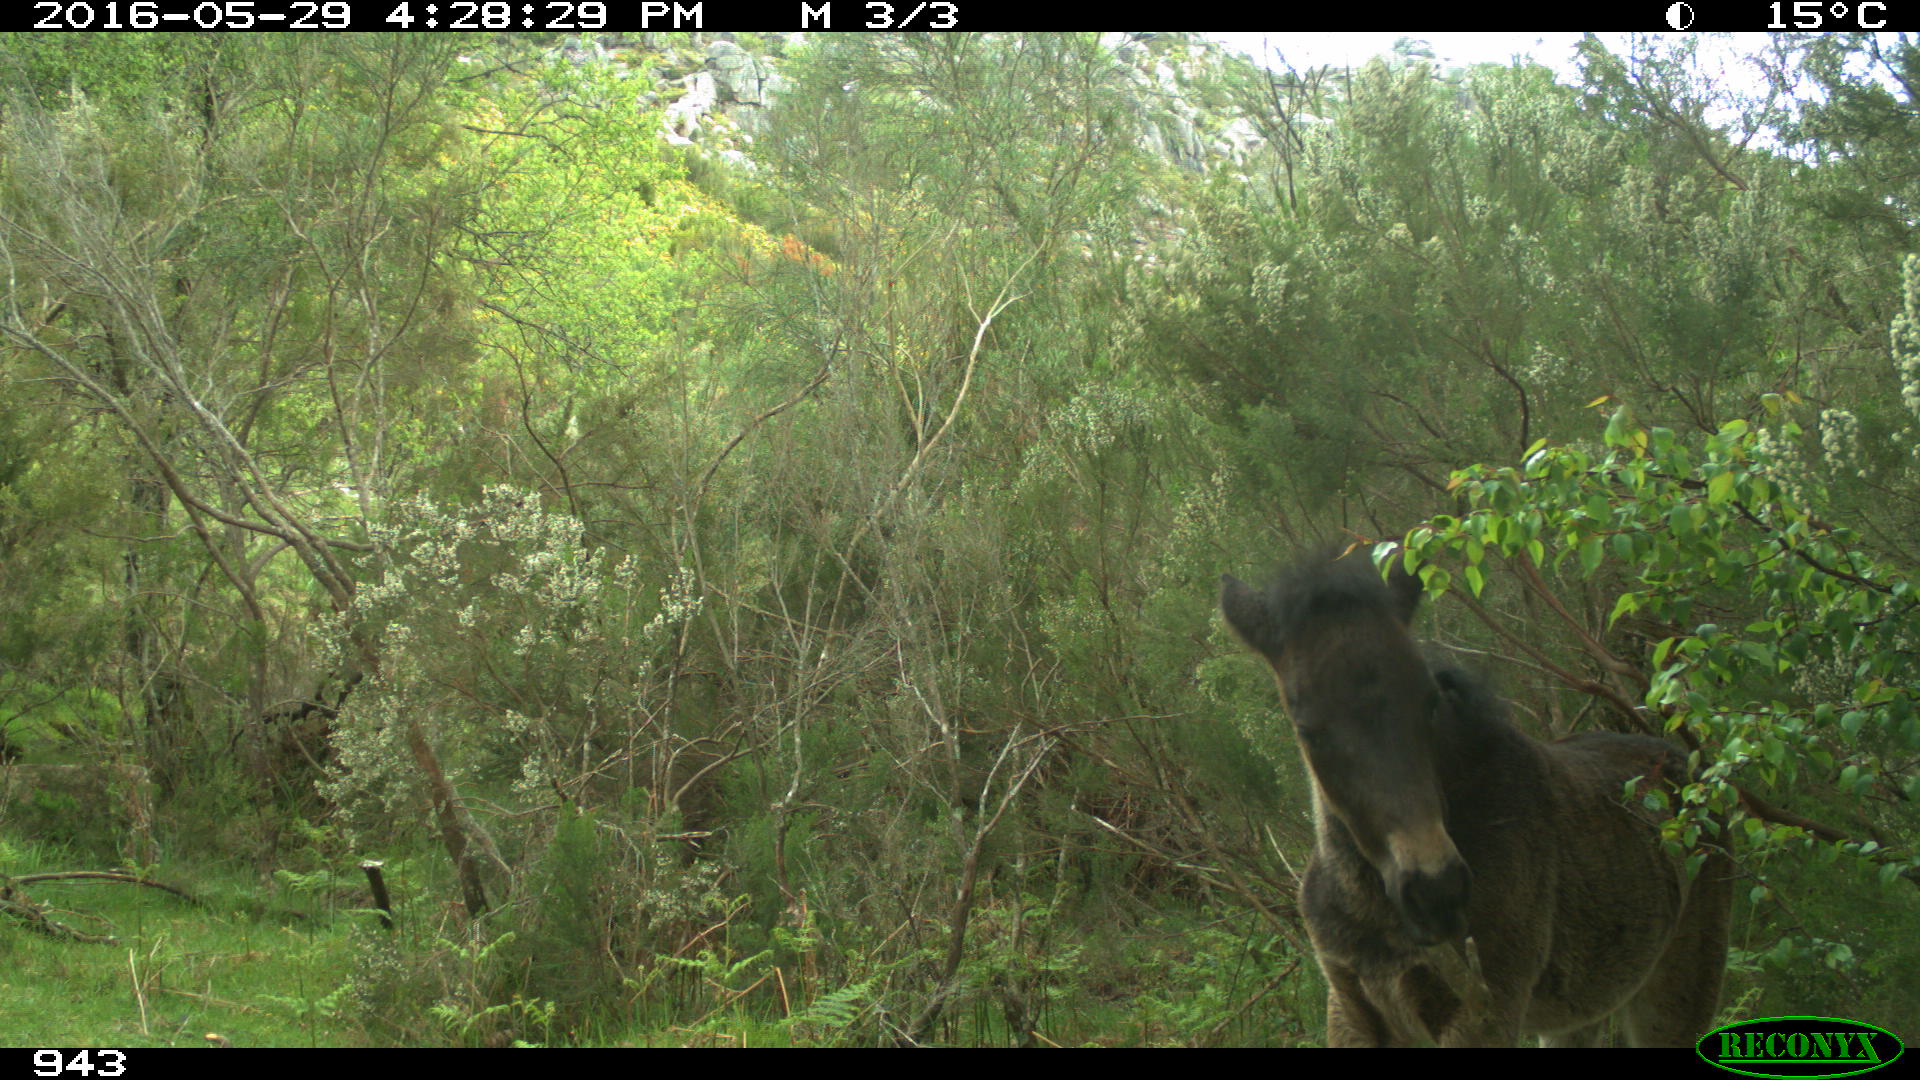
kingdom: Animalia
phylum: Chordata
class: Mammalia
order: Perissodactyla
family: Equidae
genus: Equus
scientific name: Equus caballus
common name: Horse
